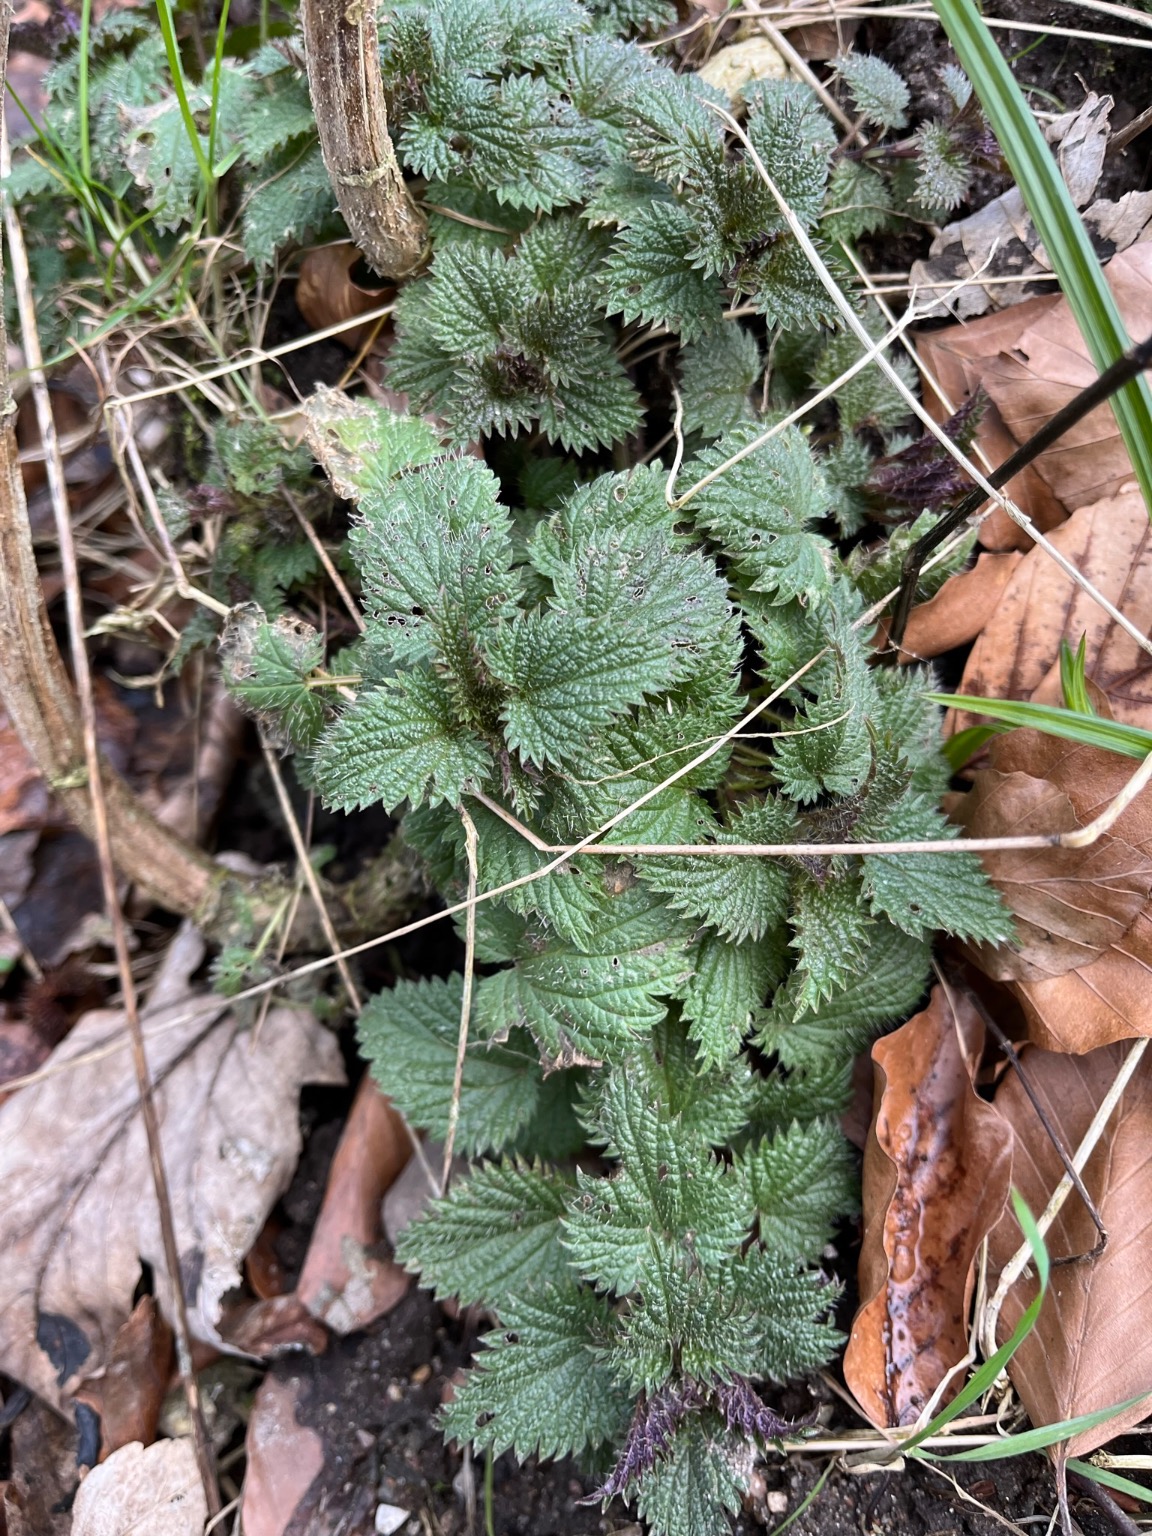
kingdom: Plantae
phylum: Tracheophyta
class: Magnoliopsida
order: Rosales
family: Urticaceae
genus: Urtica
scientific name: Urtica dioica
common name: Stor nælde
